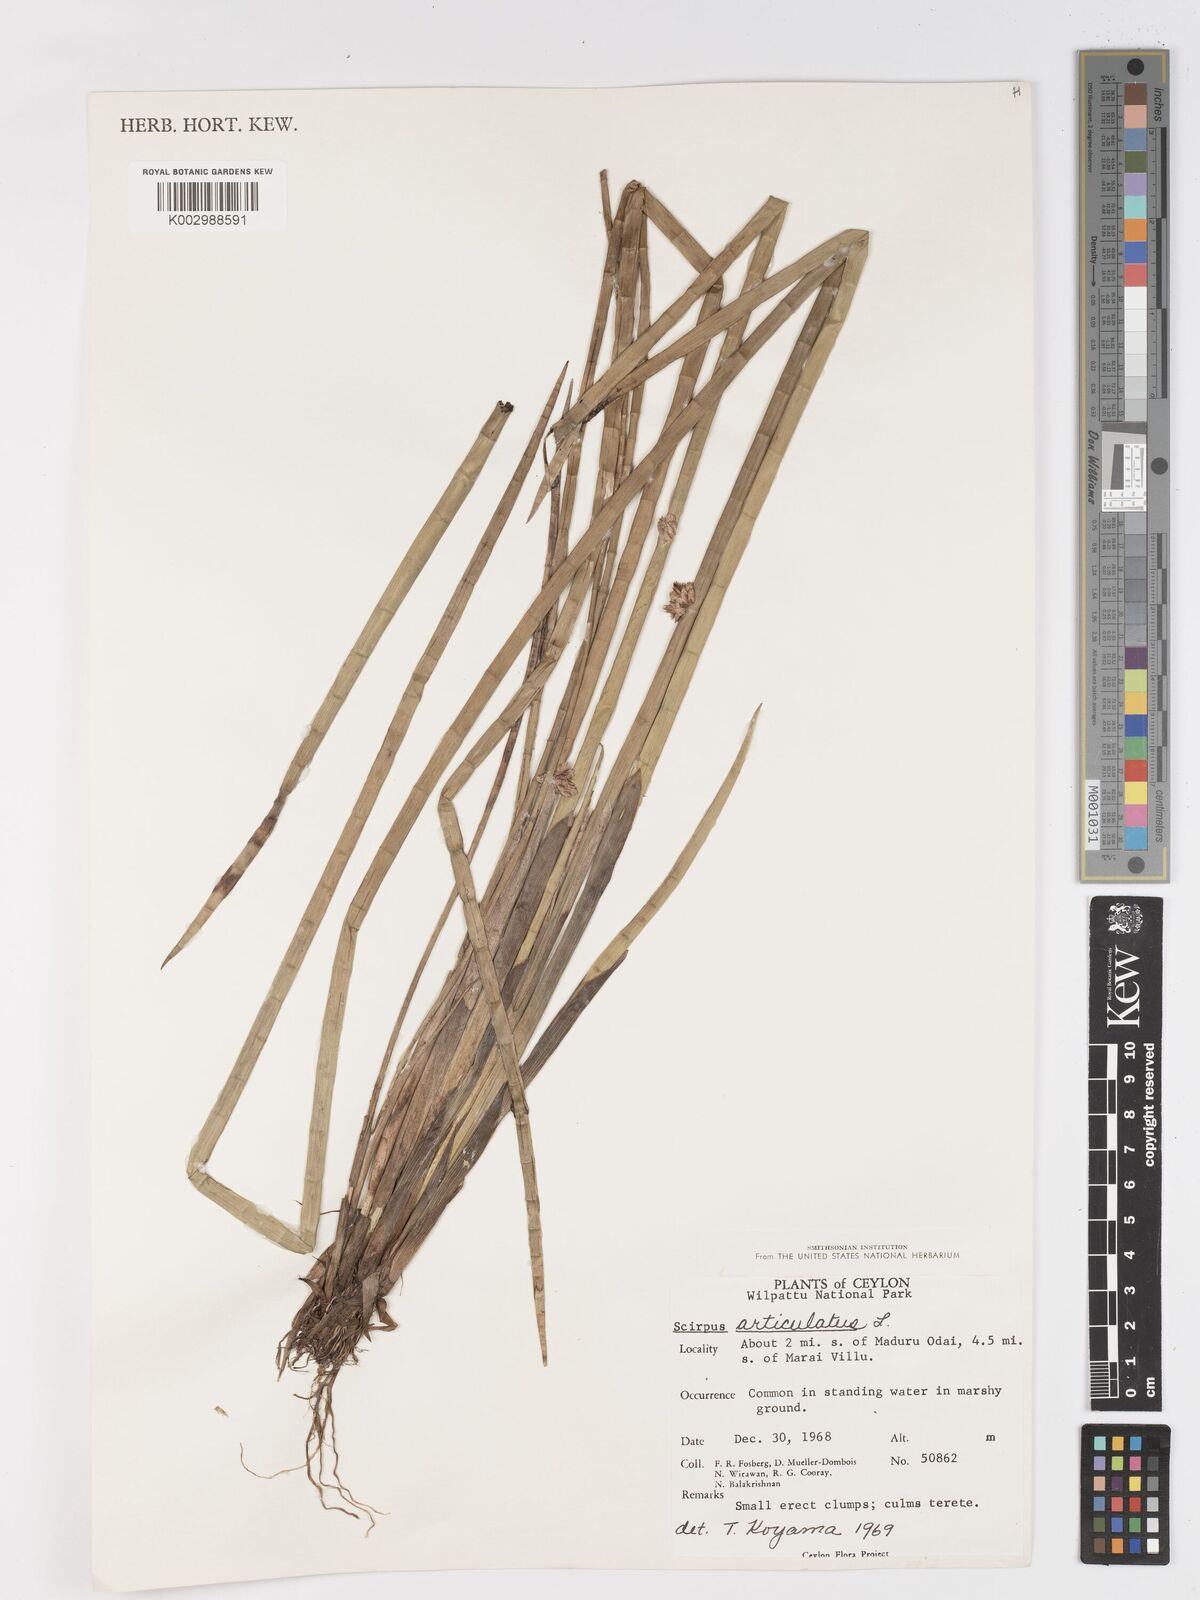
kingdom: Plantae
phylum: Tracheophyta
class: Liliopsida
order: Poales
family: Cyperaceae
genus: Schoenoplectiella
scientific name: Schoenoplectiella articulata
